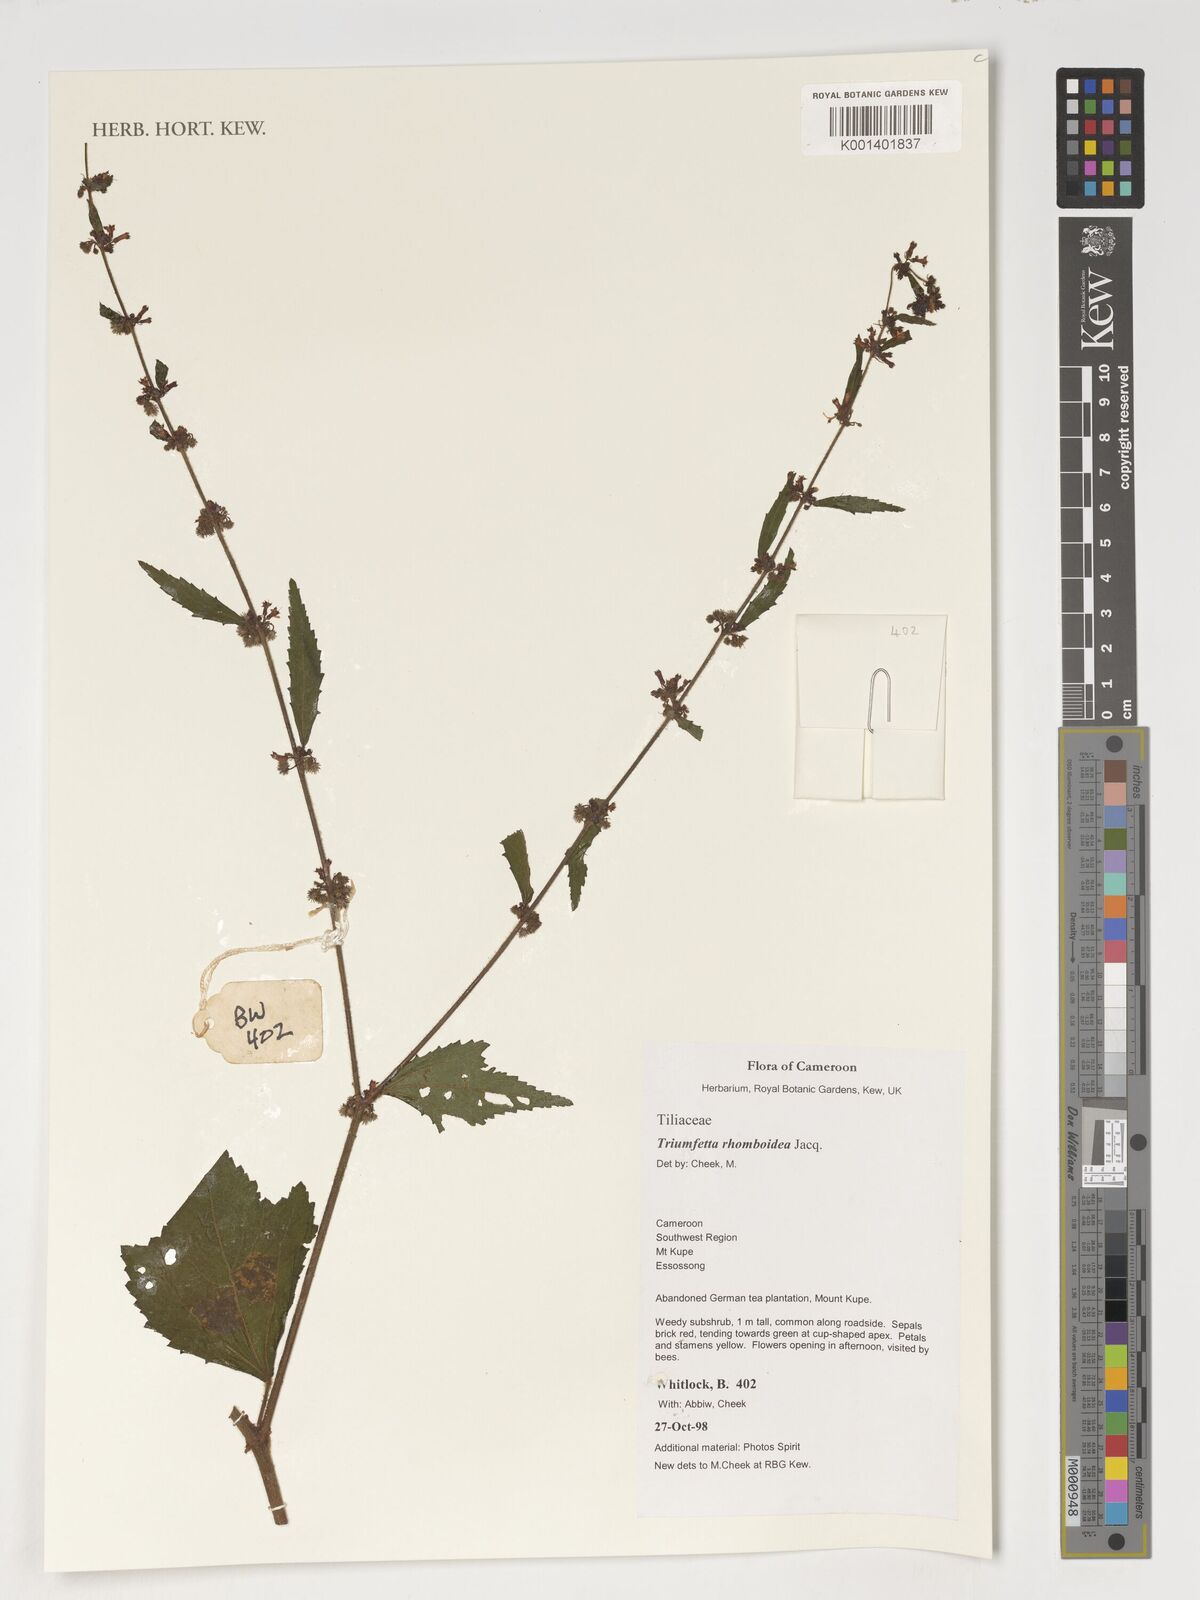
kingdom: Plantae
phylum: Tracheophyta
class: Magnoliopsida
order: Malvales
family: Malvaceae
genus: Triumfetta
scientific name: Triumfetta rhomboidea
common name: Diamond burbark
